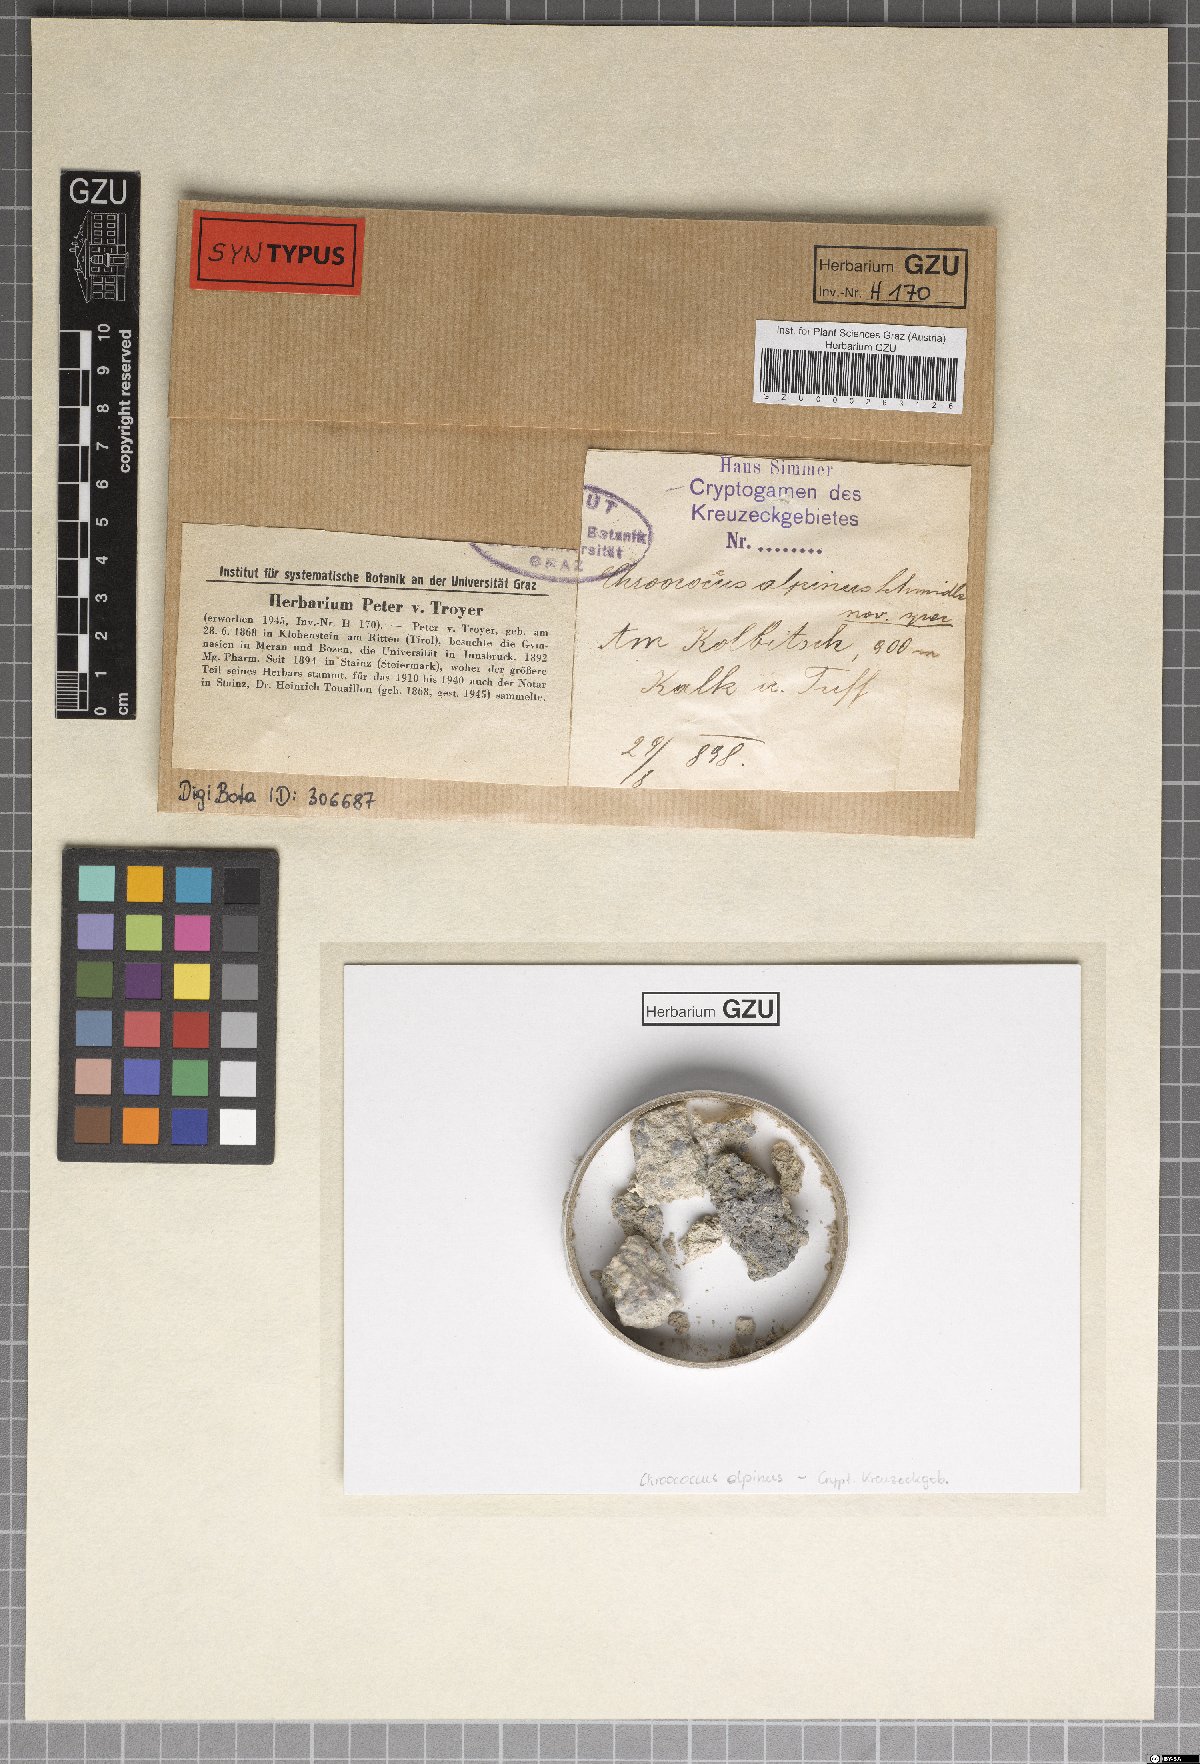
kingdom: Bacteria
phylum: Cyanobacteria
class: Cyanobacteriia
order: Cyanobacteriales
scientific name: Cyanobacteriales
